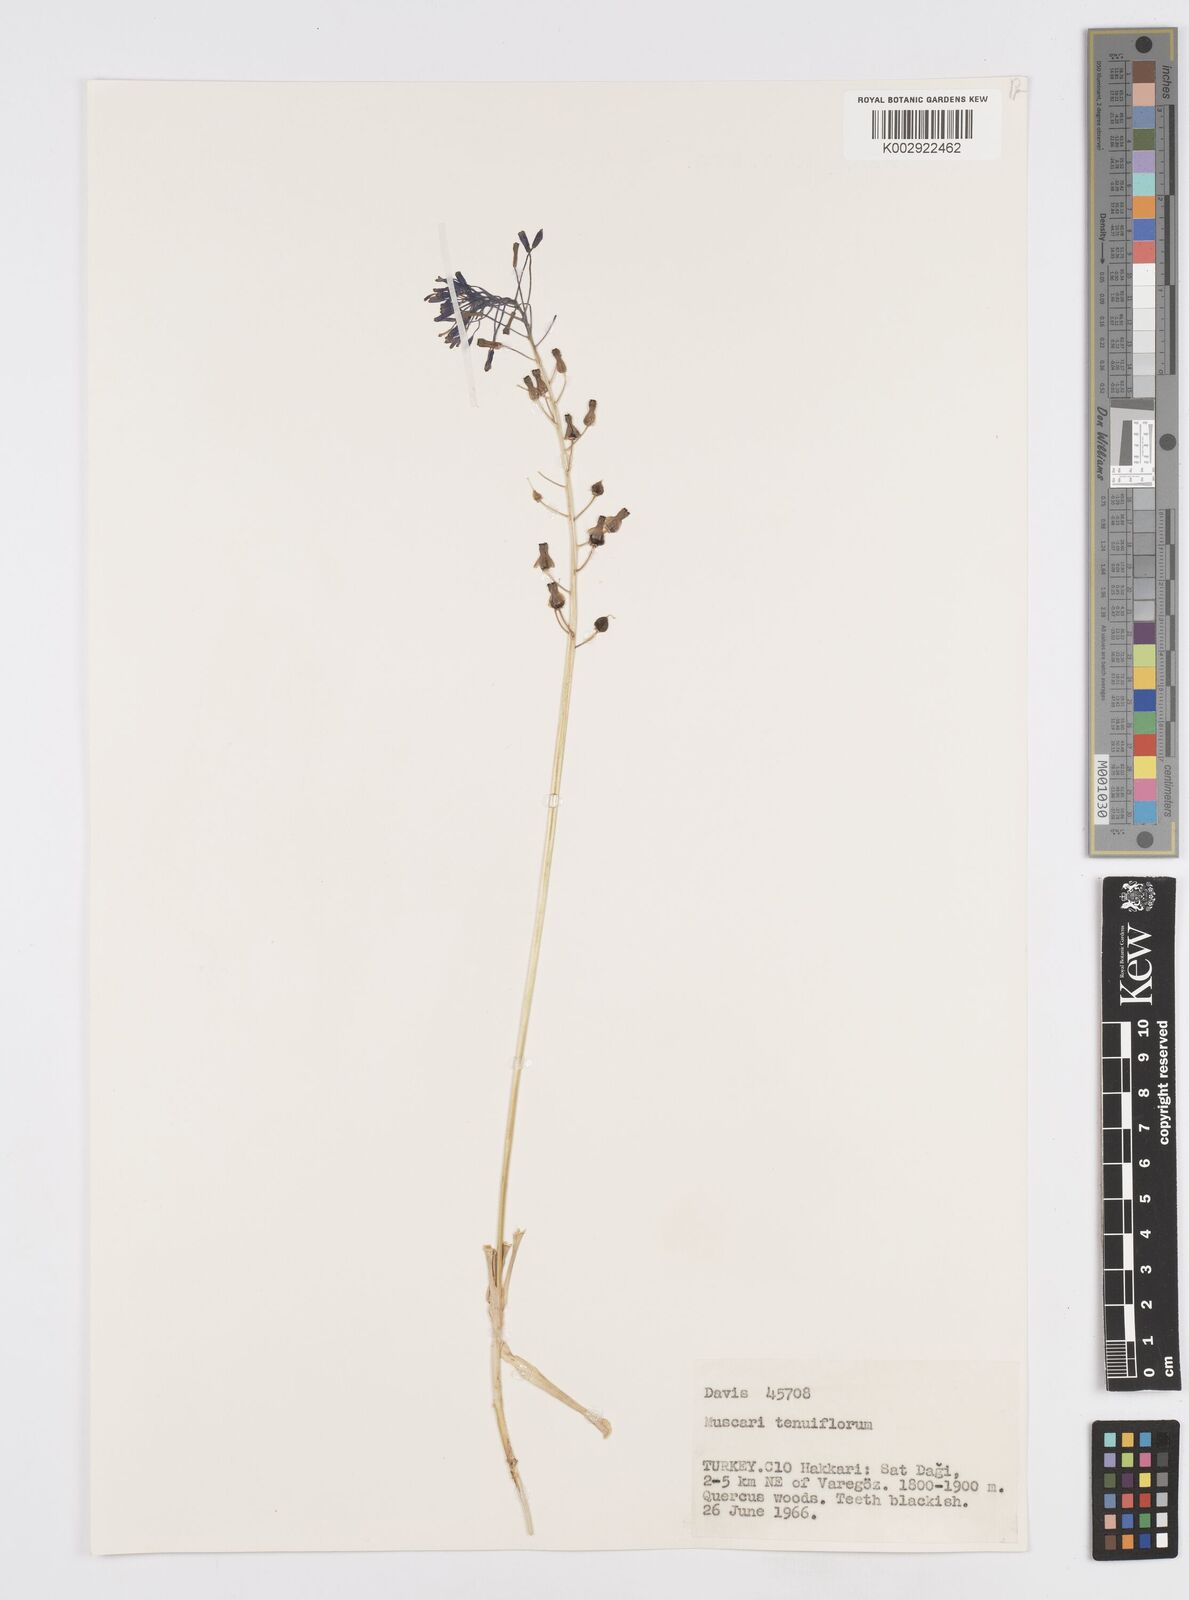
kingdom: Plantae
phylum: Tracheophyta
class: Liliopsida
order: Asparagales
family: Asparagaceae
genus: Muscari
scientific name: Muscari tenuiflorum
